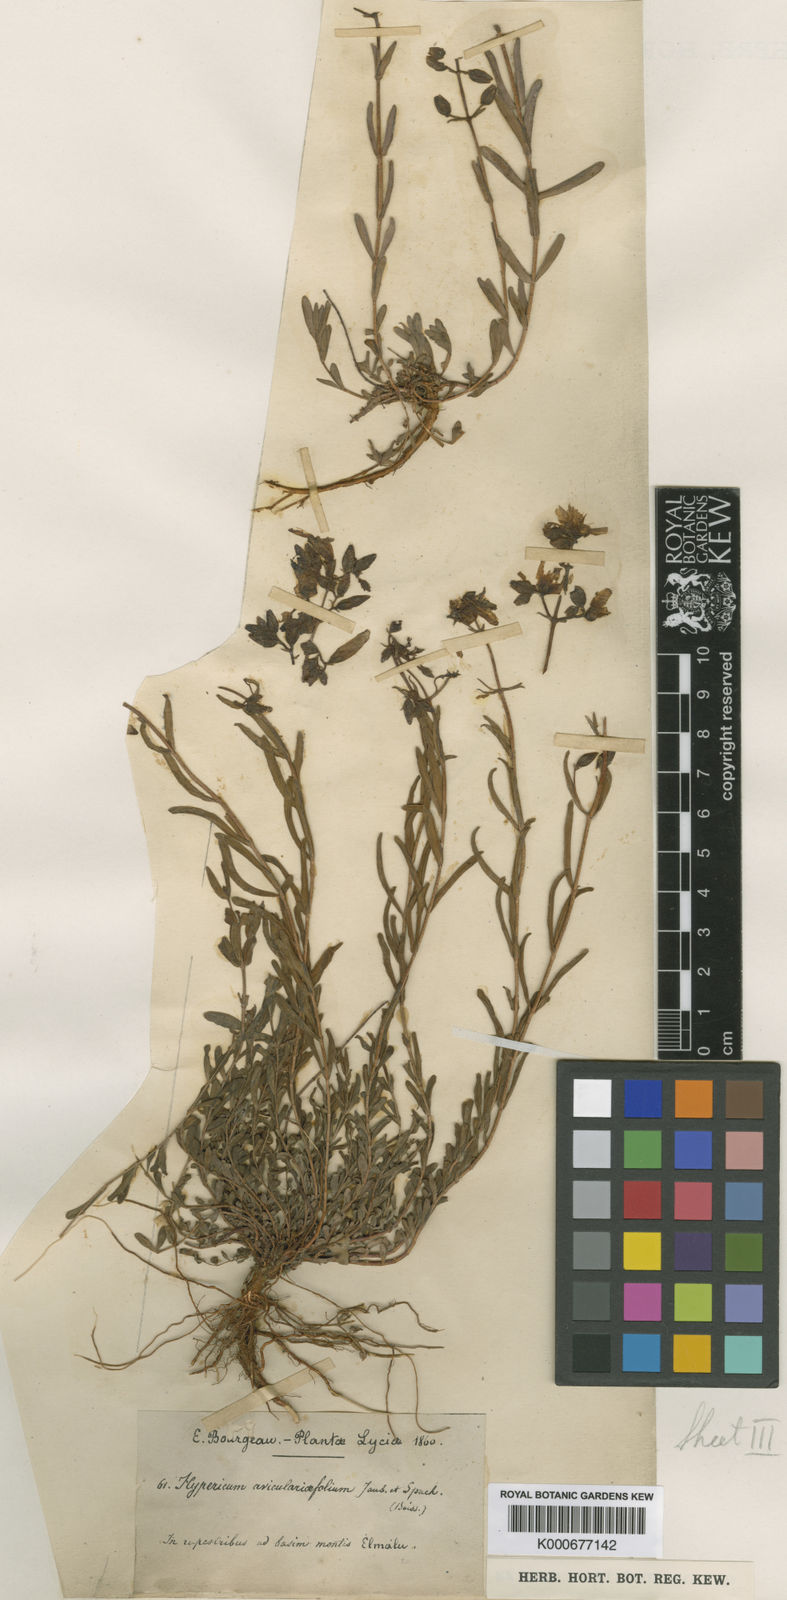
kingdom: Plantae
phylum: Tracheophyta
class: Magnoliopsida
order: Malpighiales
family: Hypericaceae
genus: Hypericum
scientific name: Hypericum
